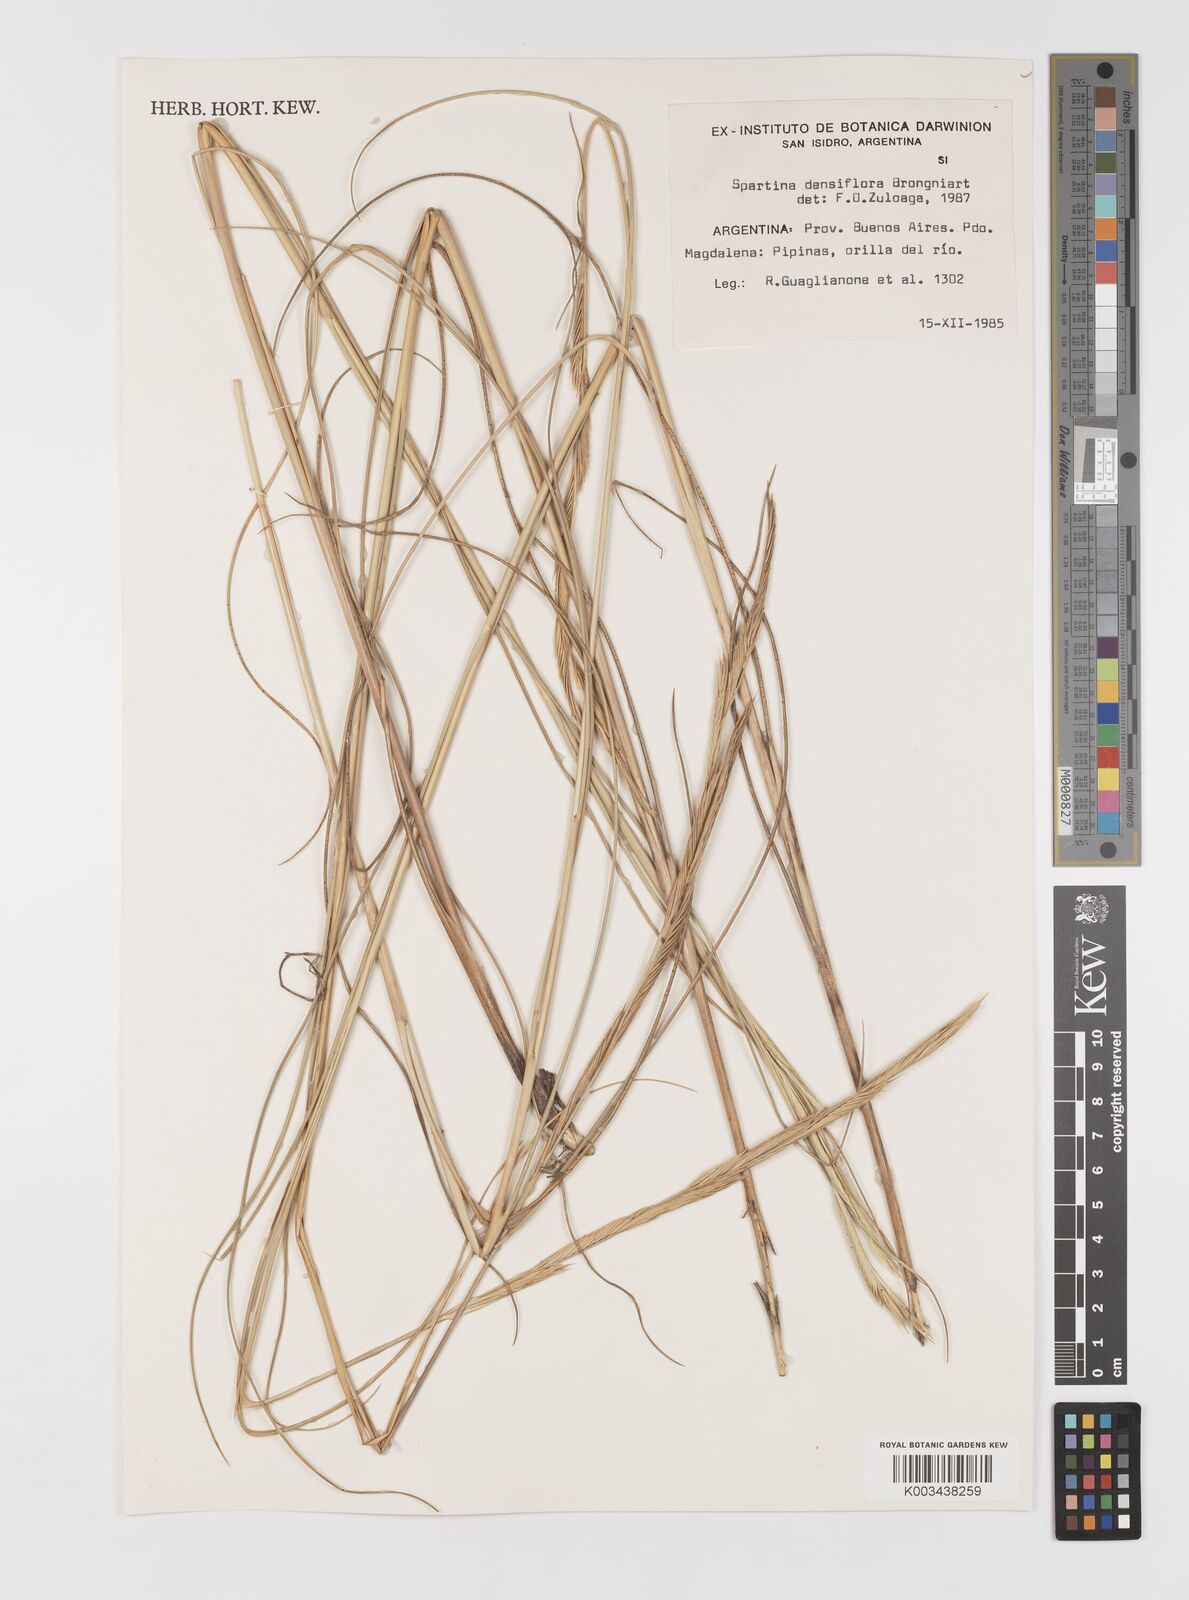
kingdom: Plantae
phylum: Tracheophyta
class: Liliopsida
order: Poales
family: Poaceae
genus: Sporobolus
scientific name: Sporobolus montevidensis
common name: Montevideo dropseed
